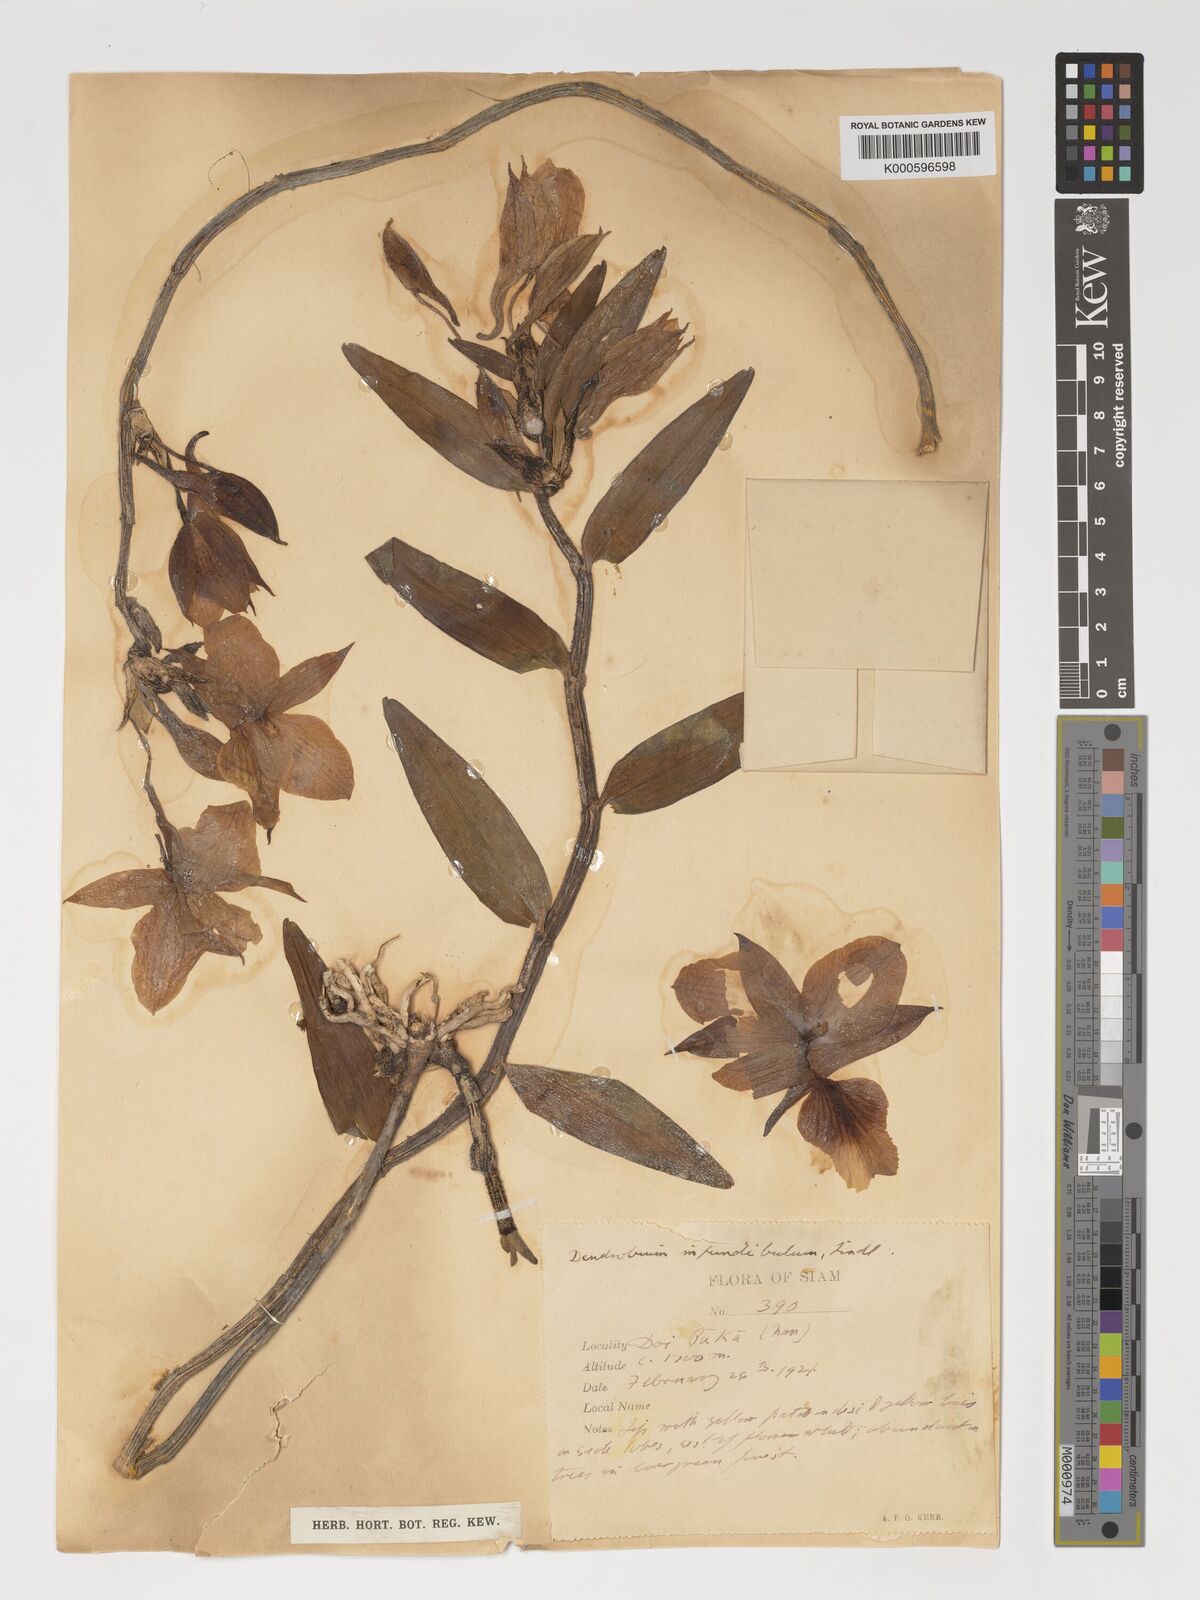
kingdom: Plantae
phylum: Tracheophyta
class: Liliopsida
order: Asparagales
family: Orchidaceae
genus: Dendrobium
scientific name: Dendrobium infundibulum
